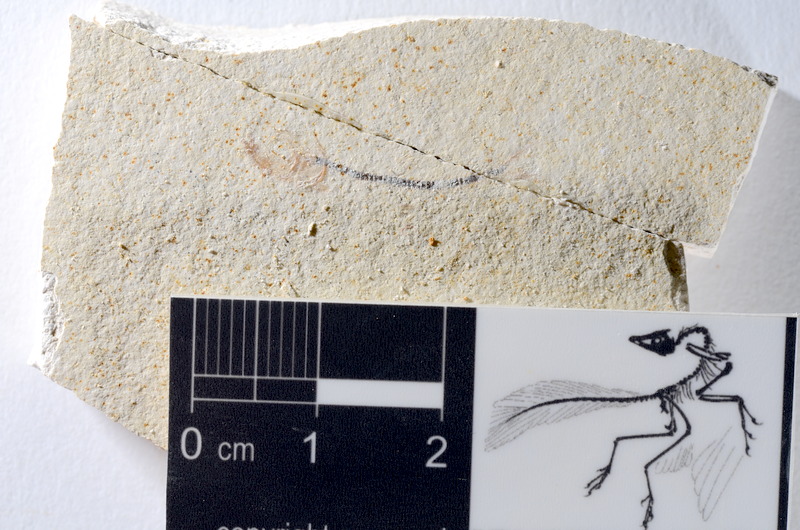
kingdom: Animalia
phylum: Chordata
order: Salmoniformes
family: Orthogonikleithridae
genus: Orthogonikleithrus
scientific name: Orthogonikleithrus hoelli
